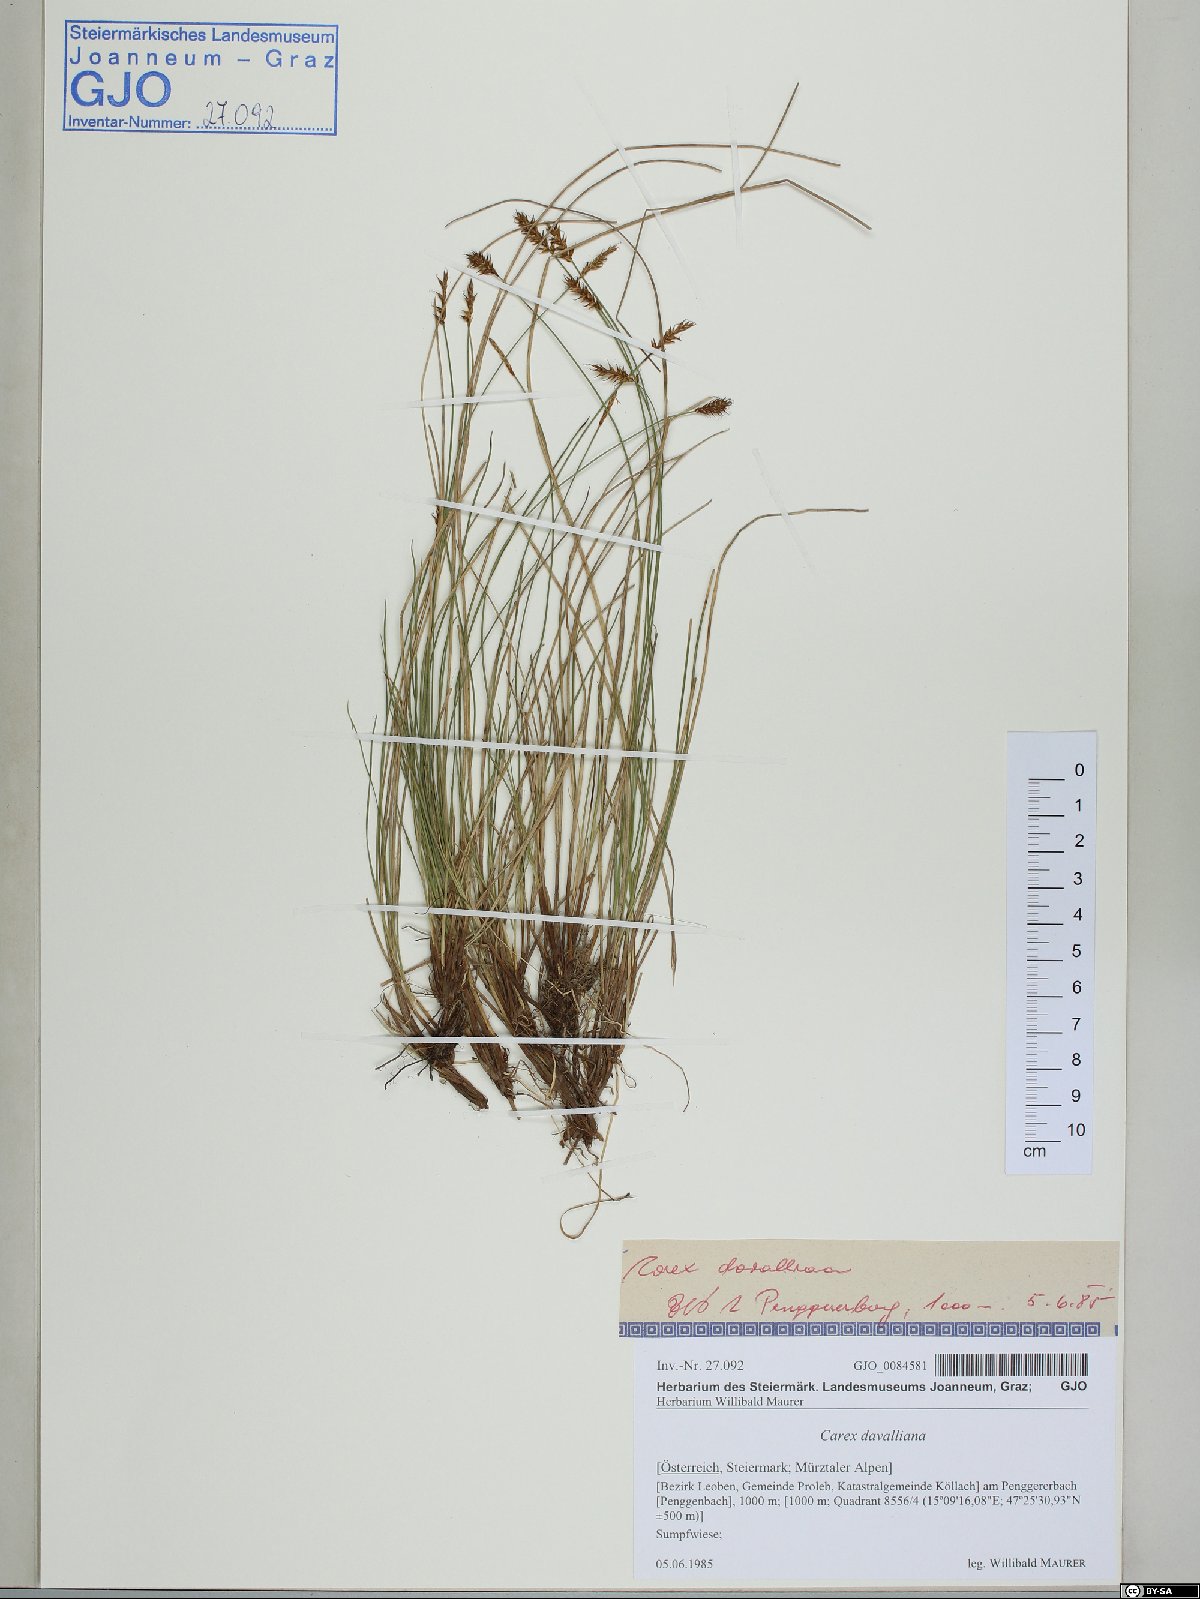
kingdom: Plantae
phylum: Tracheophyta
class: Liliopsida
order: Poales
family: Cyperaceae
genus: Carex
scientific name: Carex davalliana
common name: Davall's sedge
